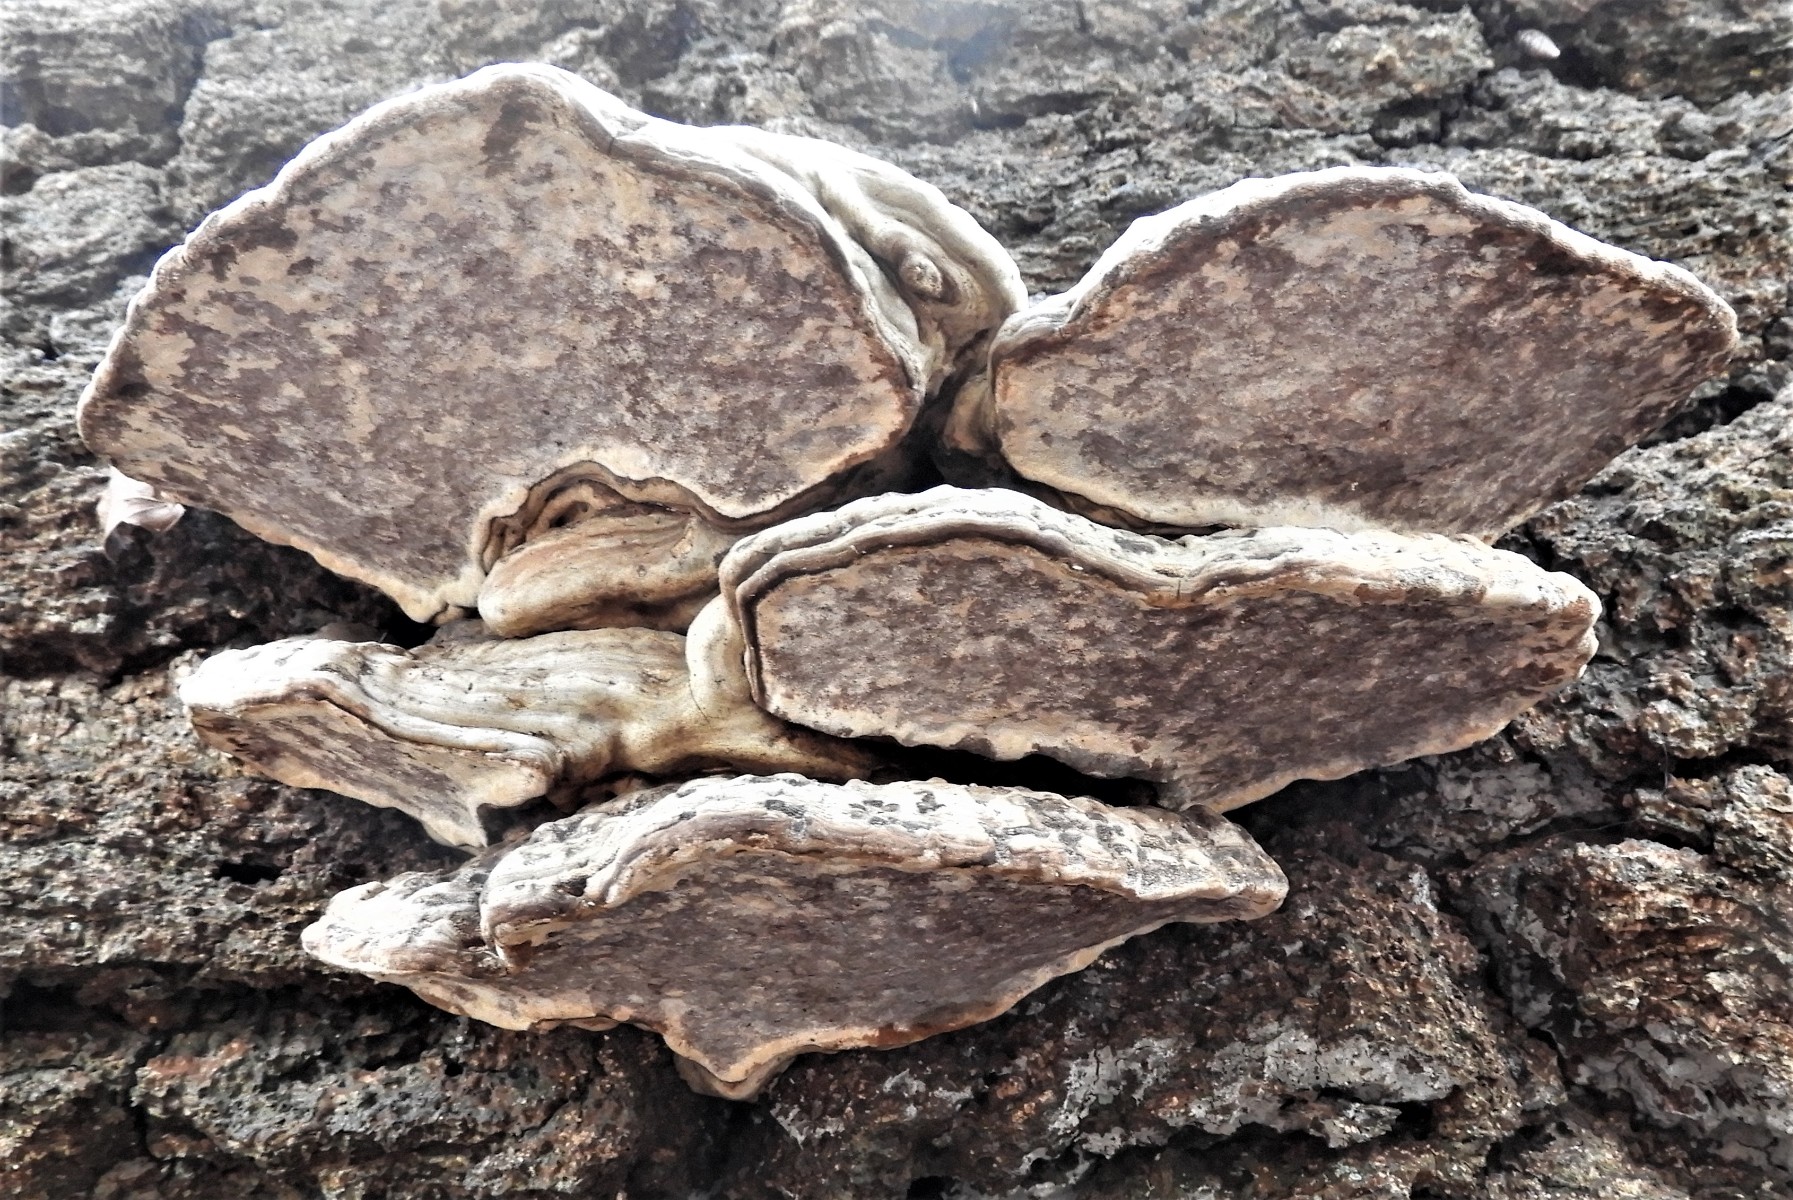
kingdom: Fungi
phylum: Basidiomycota
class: Agaricomycetes
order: Polyporales
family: Polyporaceae
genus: Ganoderma
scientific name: Ganoderma applanatum
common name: flad lakporesvamp
